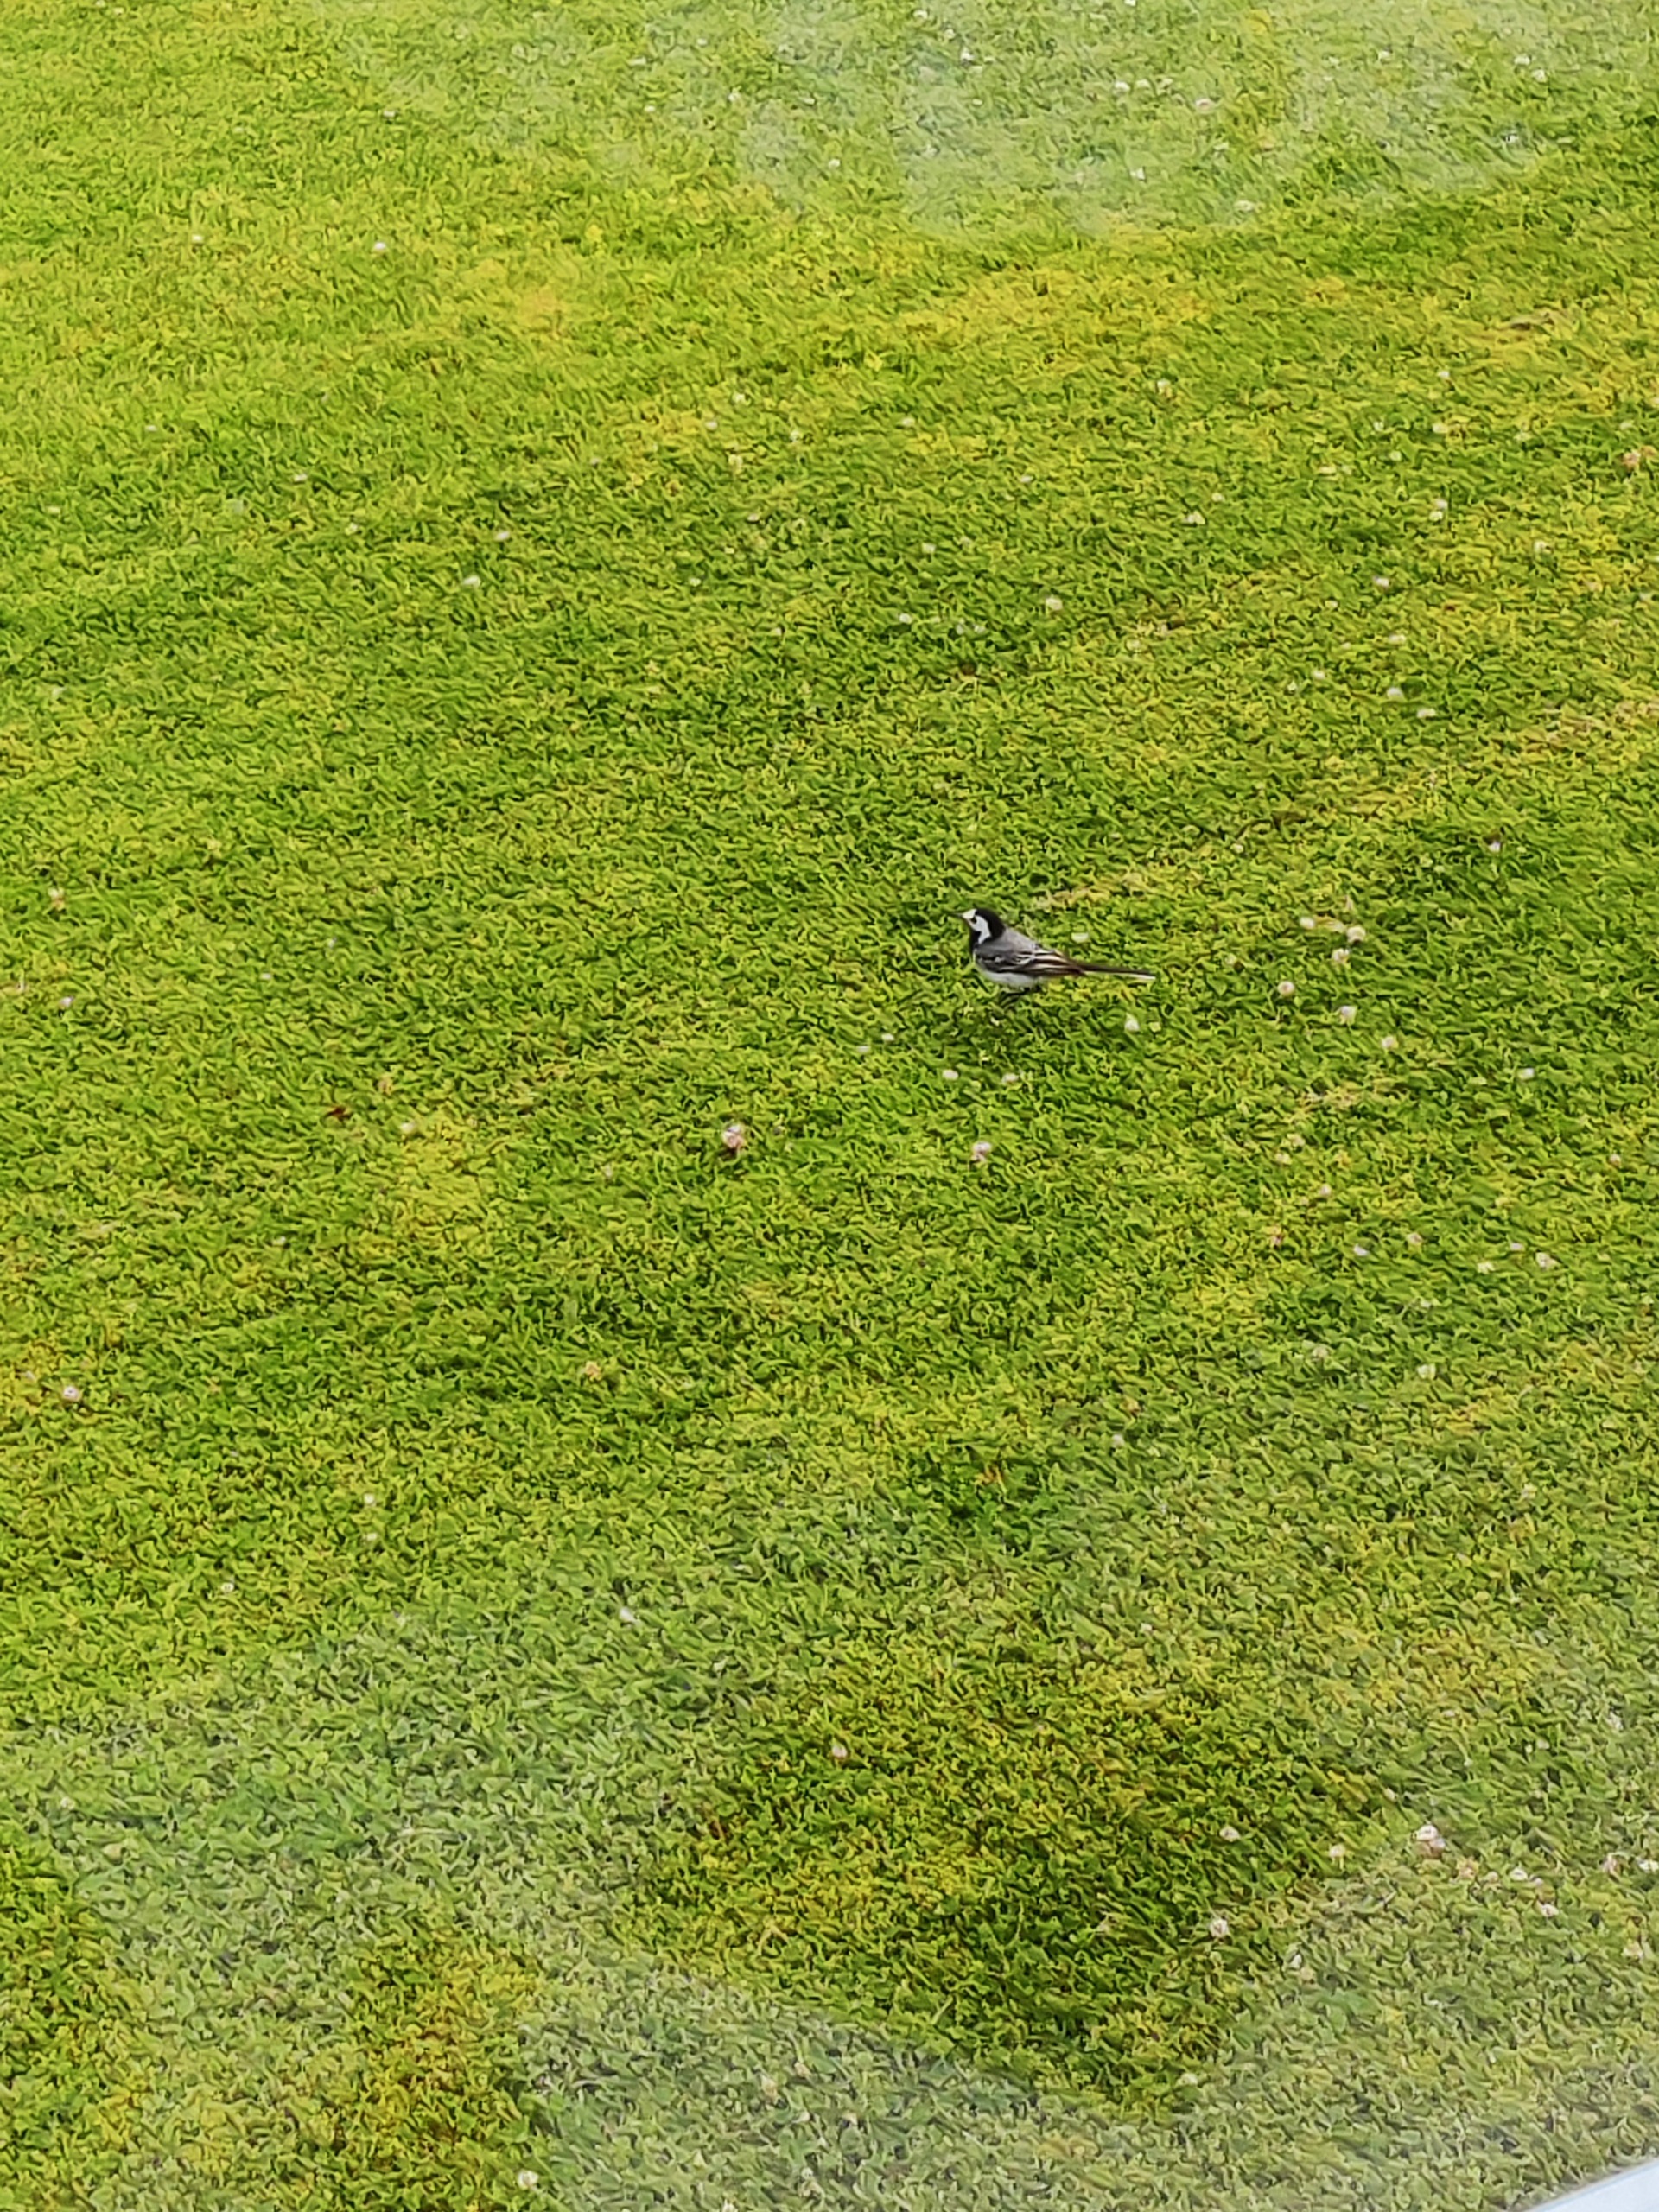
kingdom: Animalia
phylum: Chordata
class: Aves
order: Passeriformes
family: Motacillidae
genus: Motacilla
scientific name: Motacilla alba
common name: Hvid vipstjert
